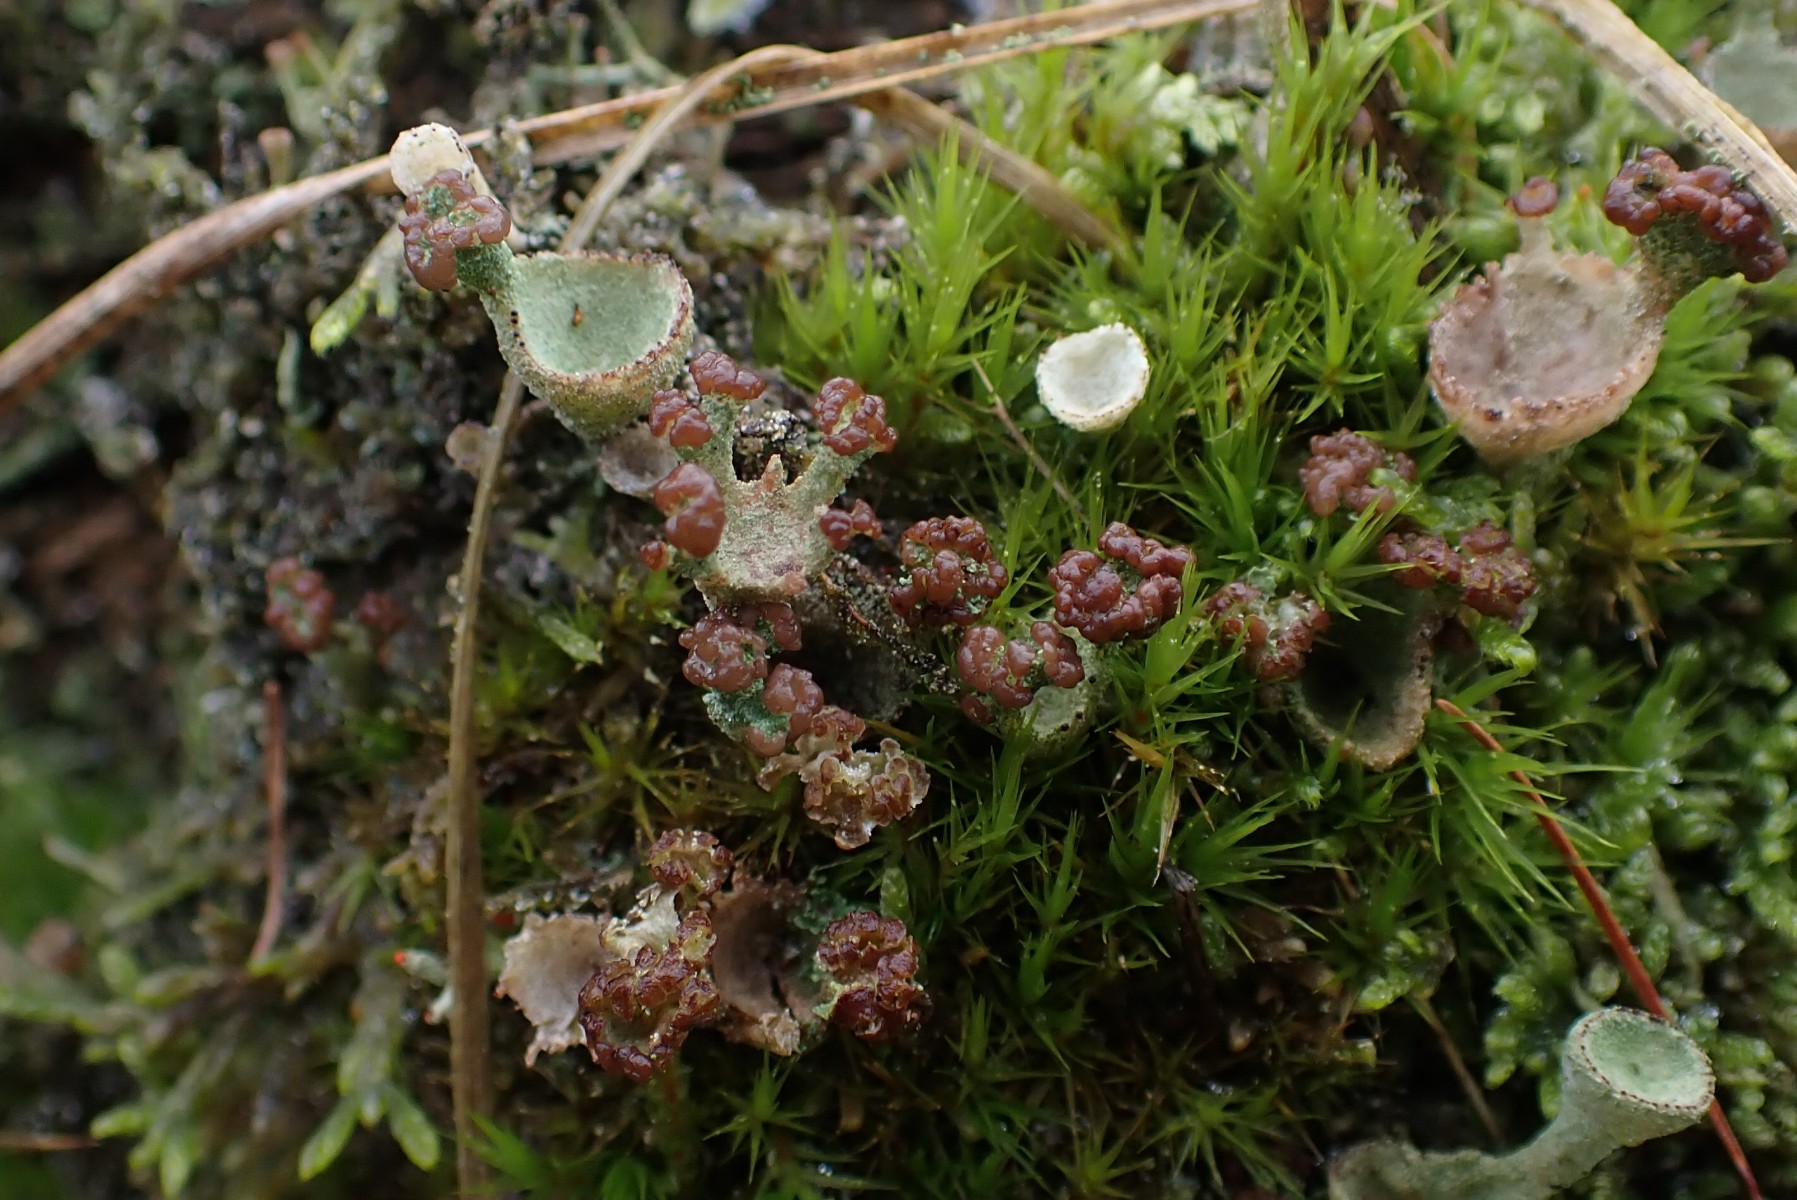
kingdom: Fungi
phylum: Ascomycota
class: Lecanoromycetes
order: Lecanorales
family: Cladoniaceae
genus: Cladonia
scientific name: Cladonia
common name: brungrøn bægerlav
